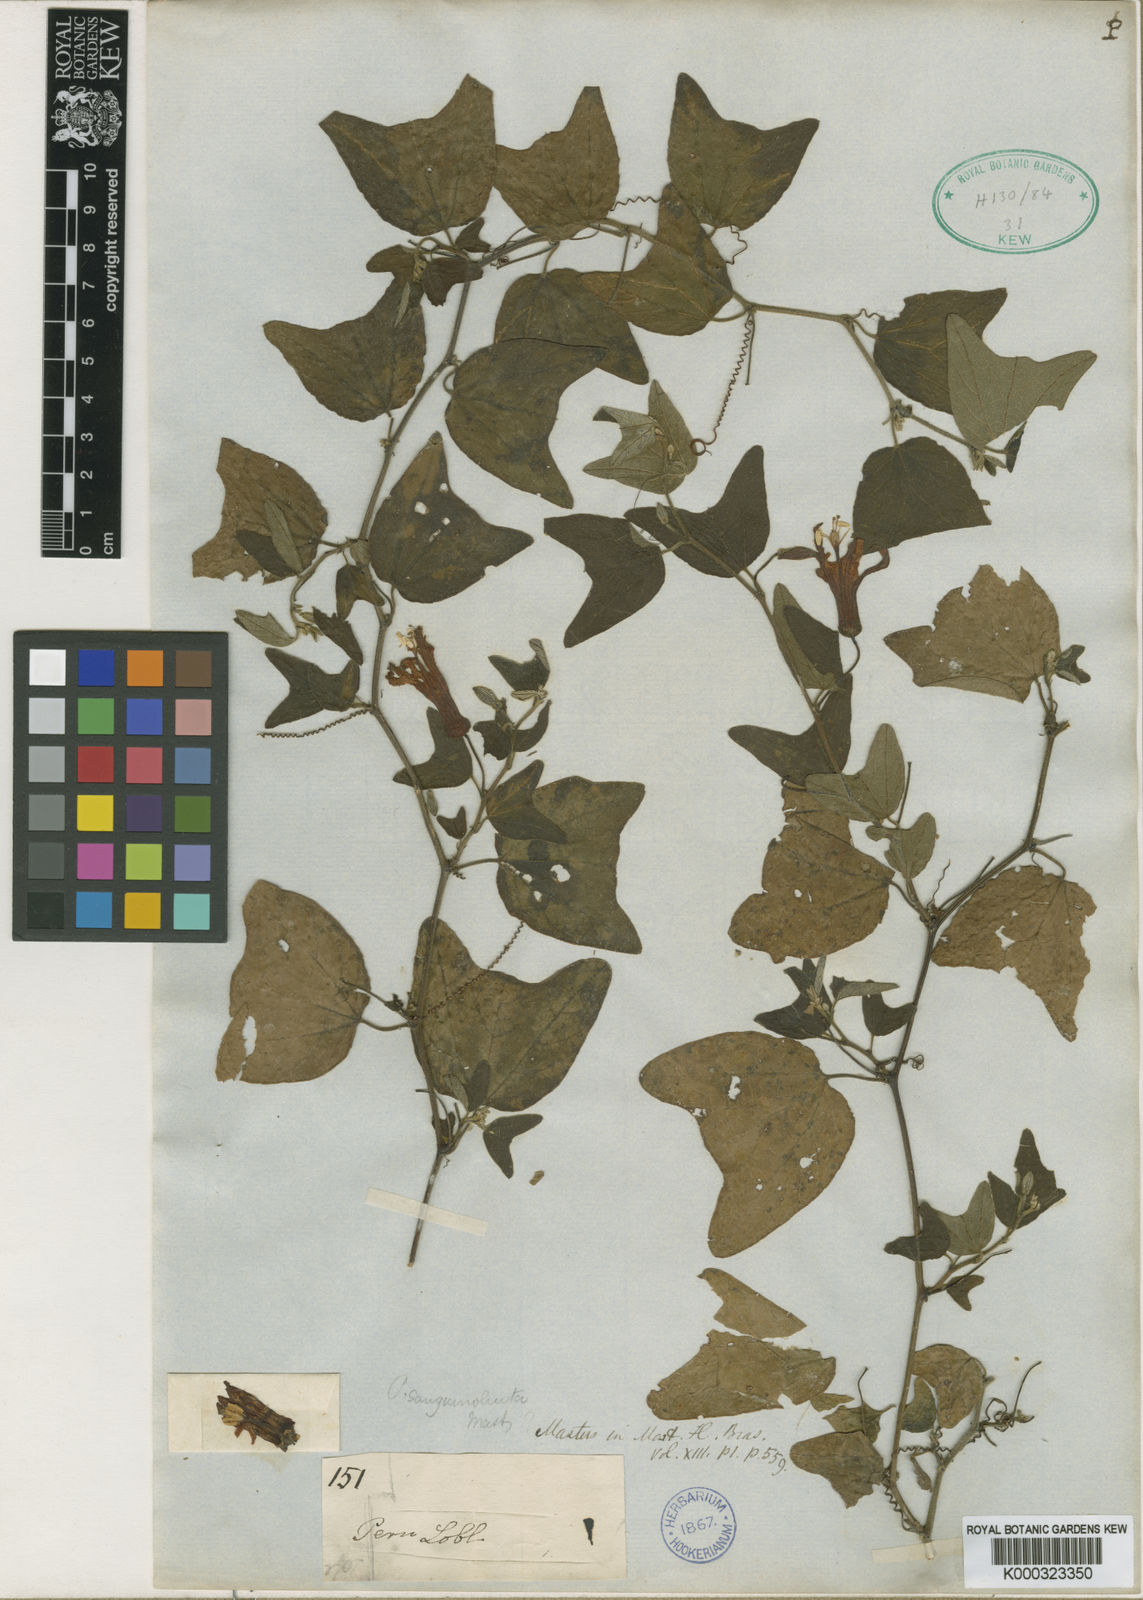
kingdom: Plantae
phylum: Tracheophyta
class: Magnoliopsida
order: Malpighiales
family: Passifloraceae
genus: Passiflora
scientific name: Passiflora sanguinolenta
